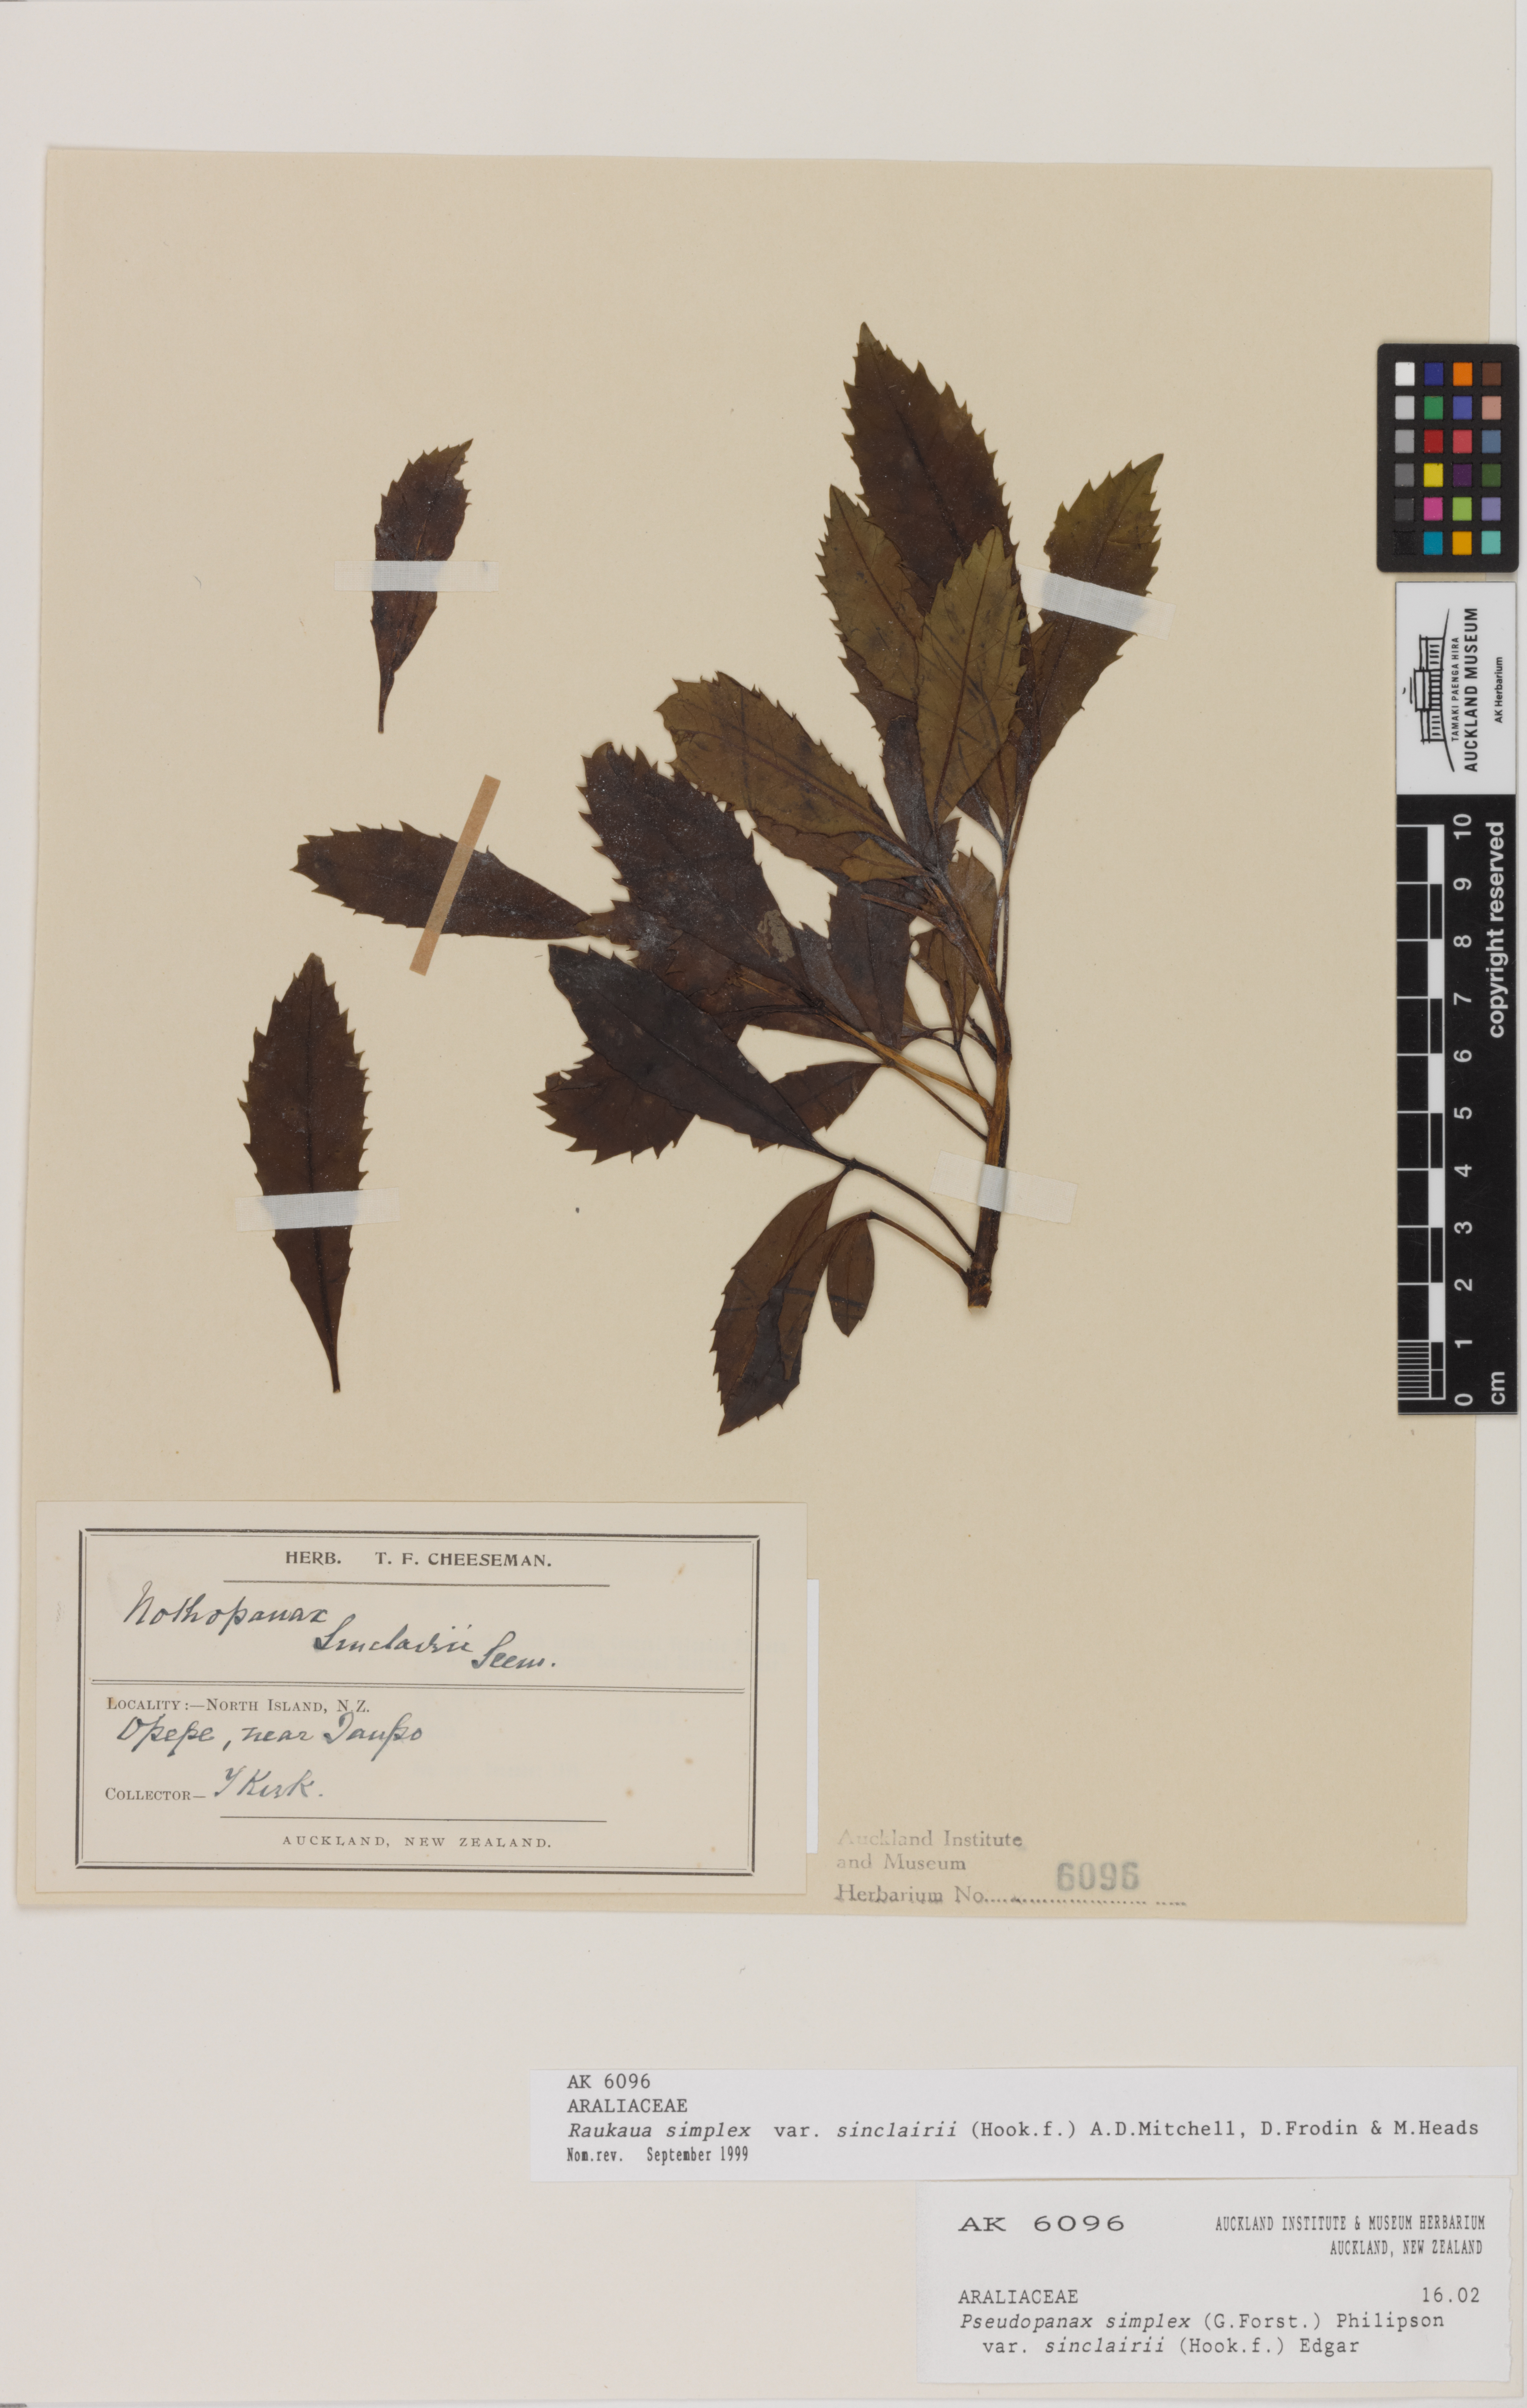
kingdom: Plantae
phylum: Tracheophyta
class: Magnoliopsida
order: Apiales
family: Araliaceae
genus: Raukaua
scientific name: Raukaua simplex
